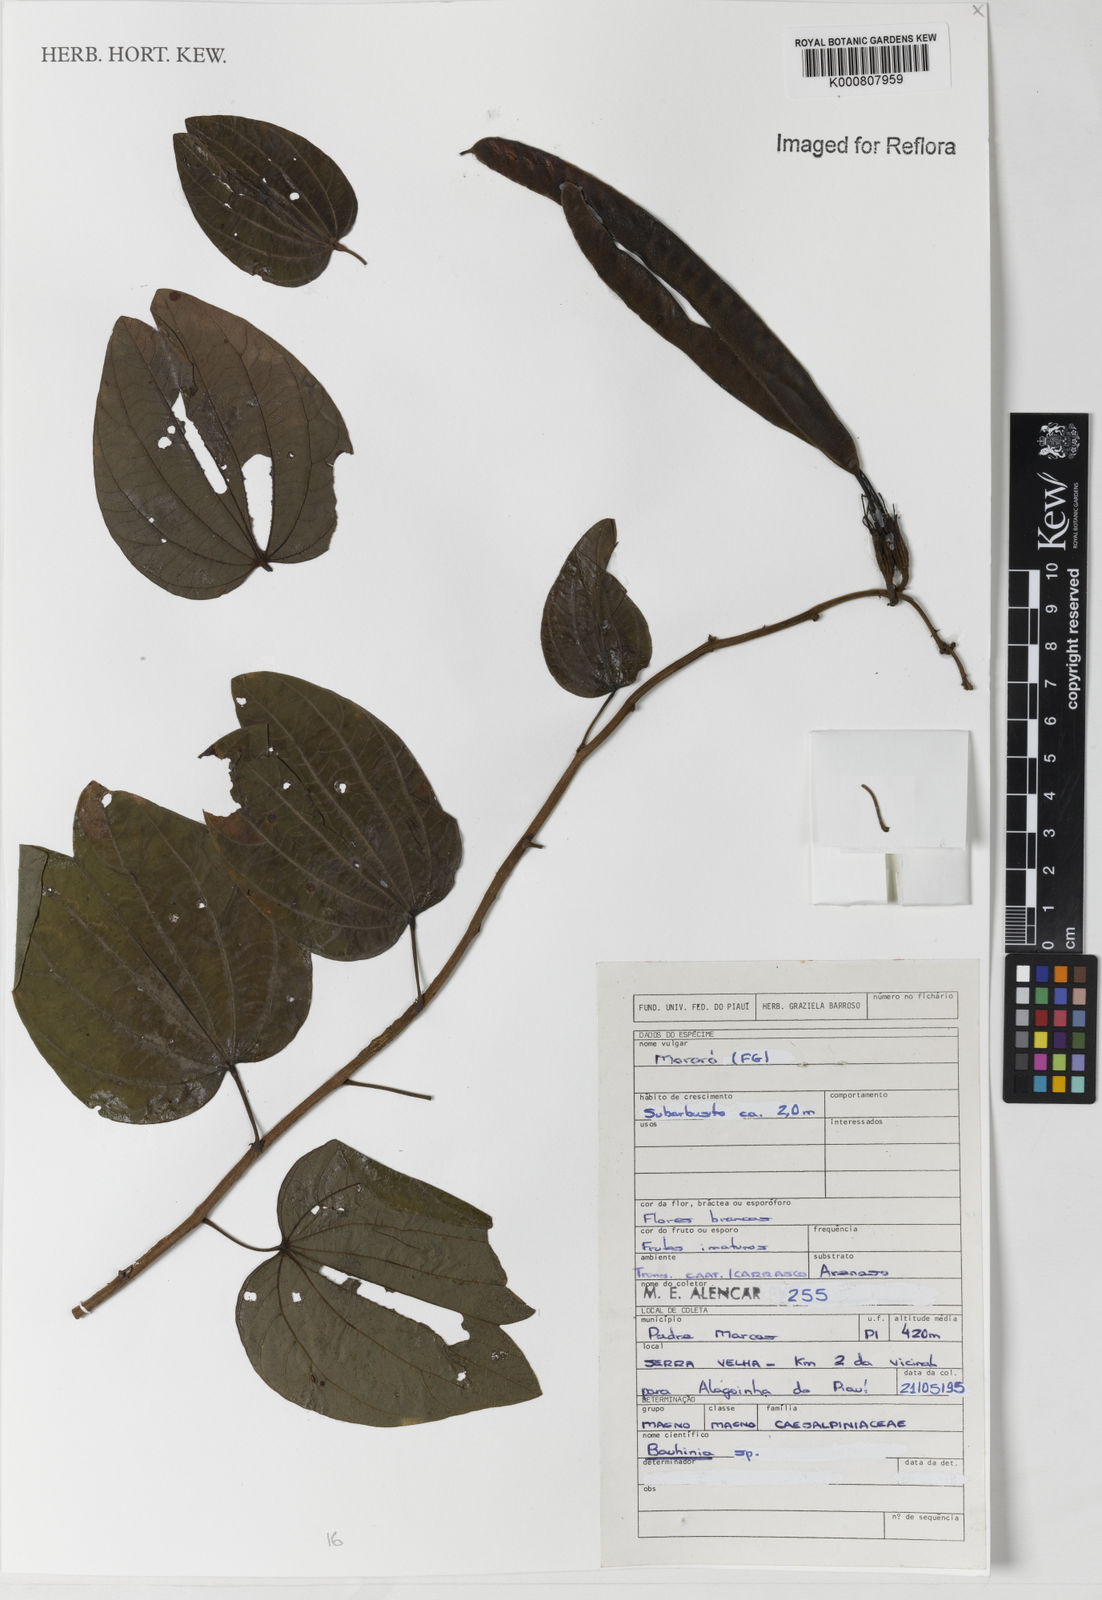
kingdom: Plantae
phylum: Tracheophyta
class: Magnoliopsida
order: Fabales
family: Fabaceae
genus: Bauhinia
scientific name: Bauhinia
